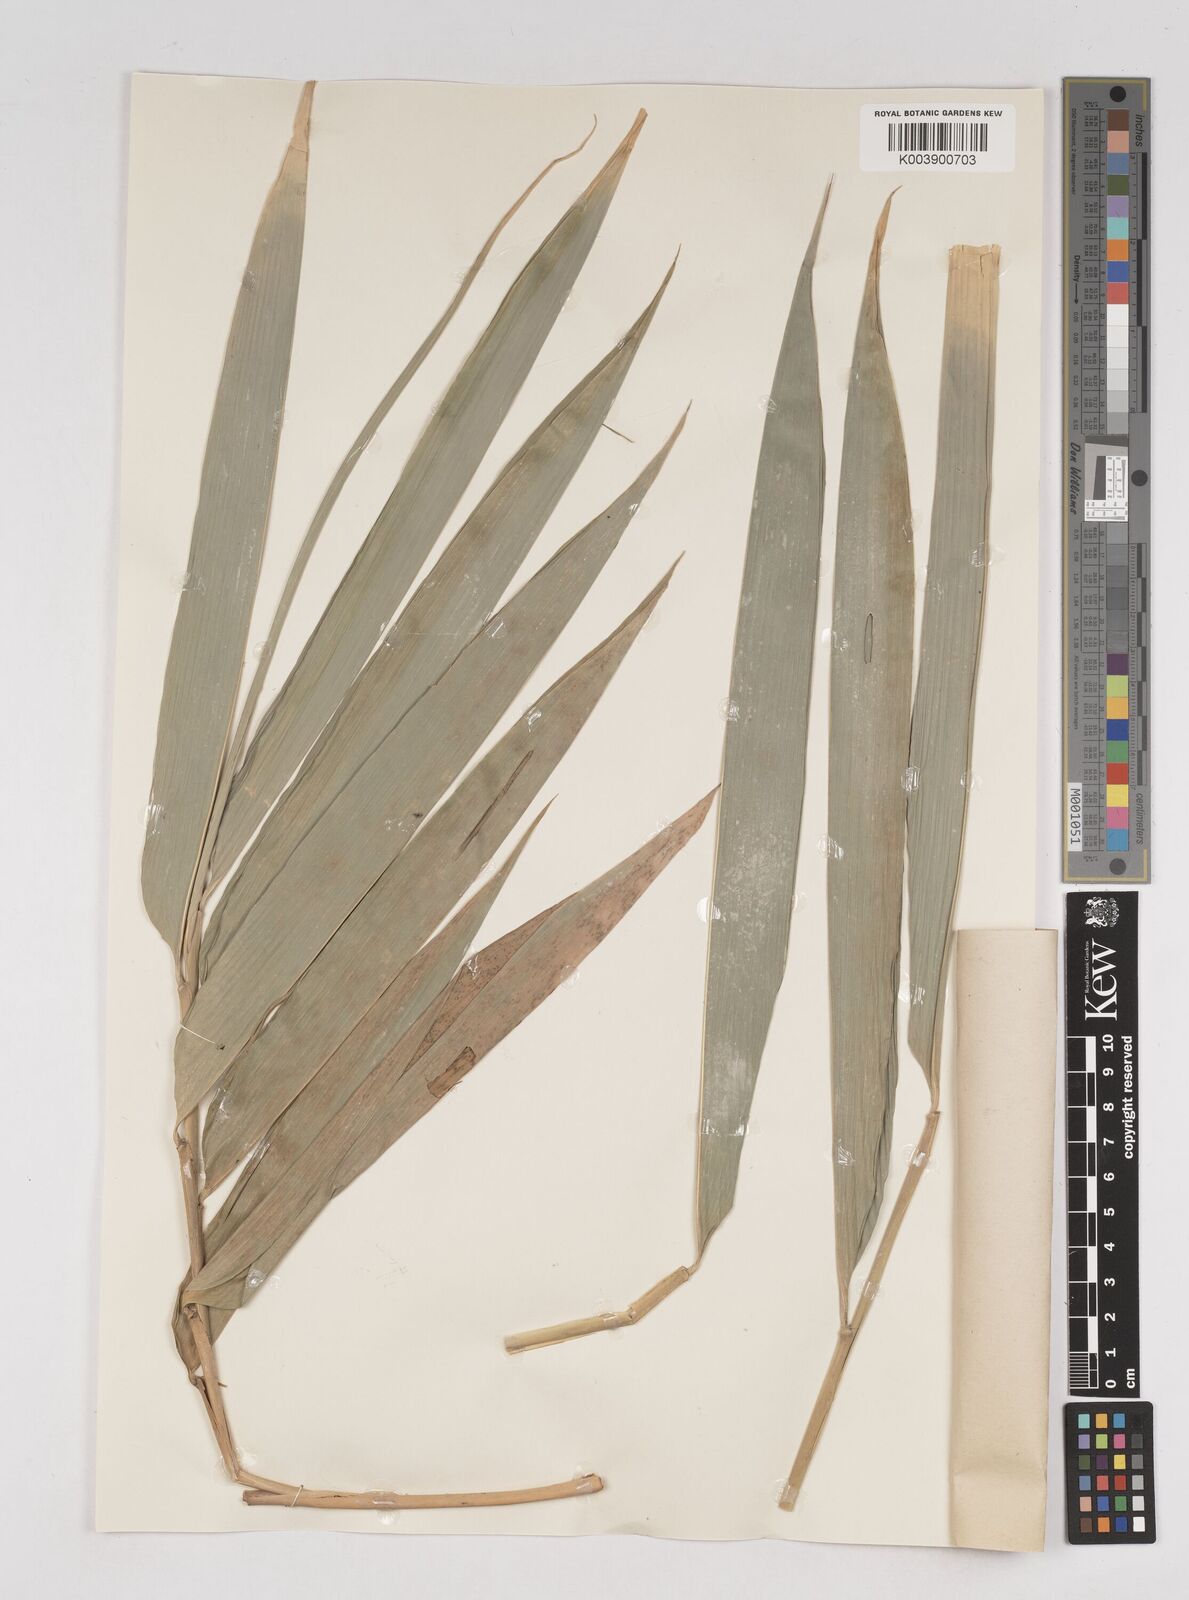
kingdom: Plantae
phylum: Tracheophyta
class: Liliopsida
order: Poales
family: Poaceae
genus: Gigantochloa
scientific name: Gigantochloa
